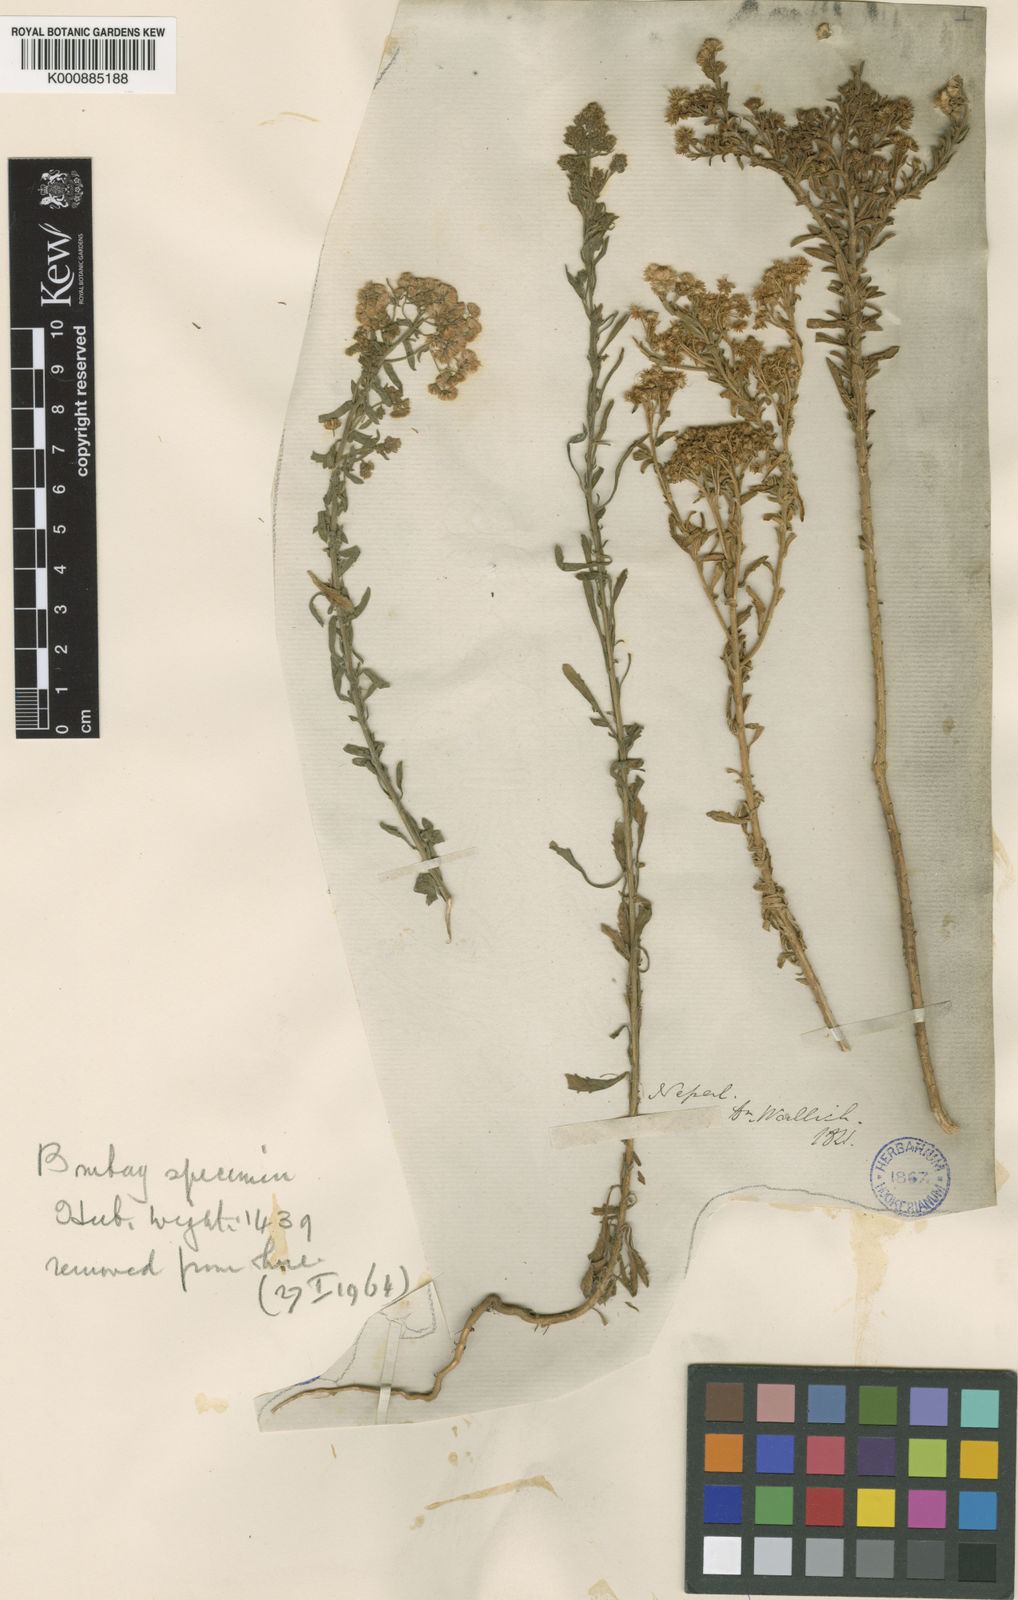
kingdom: Plantae
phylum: Tracheophyta
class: Magnoliopsida
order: Asterales
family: Asteraceae
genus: Nidorella
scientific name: Nidorella triloba
